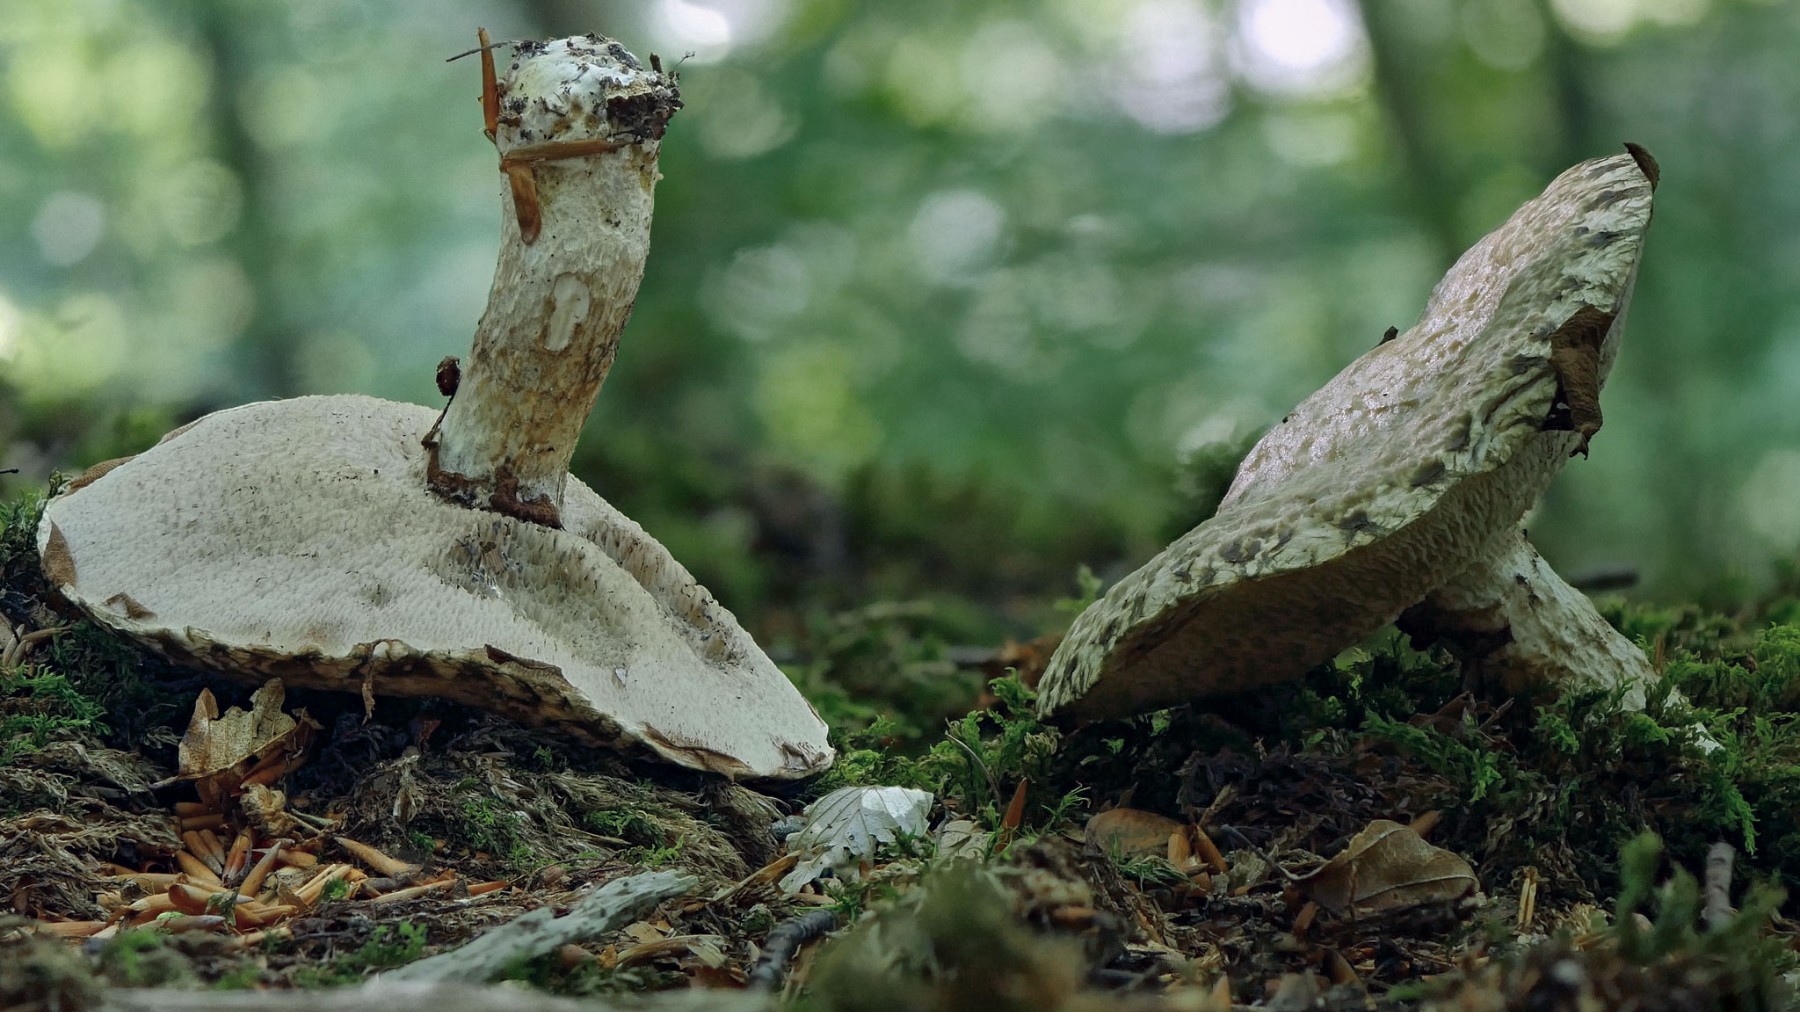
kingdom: Fungi
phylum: Basidiomycota
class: Agaricomycetes
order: Boletales
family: Suillaceae
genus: Suillus
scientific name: Suillus viscidus
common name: olivengrå slimrørhat
